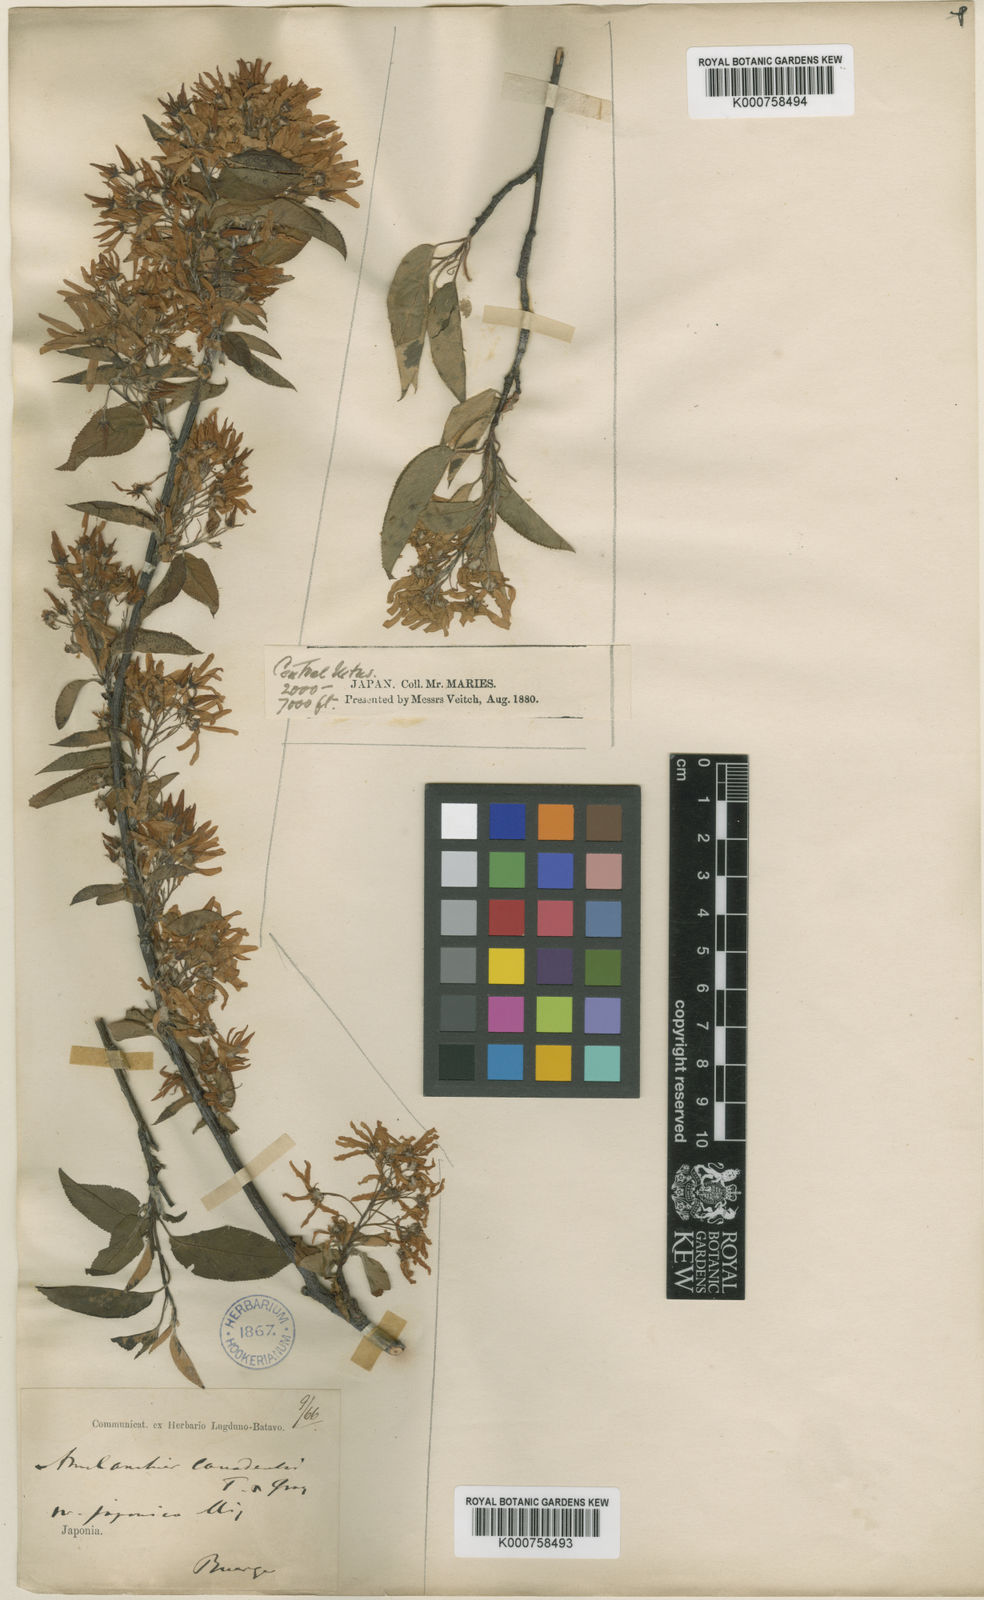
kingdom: Plantae
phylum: Tracheophyta
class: Magnoliopsida
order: Rosales
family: Rosaceae
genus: Amelanchier
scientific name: Amelanchier
